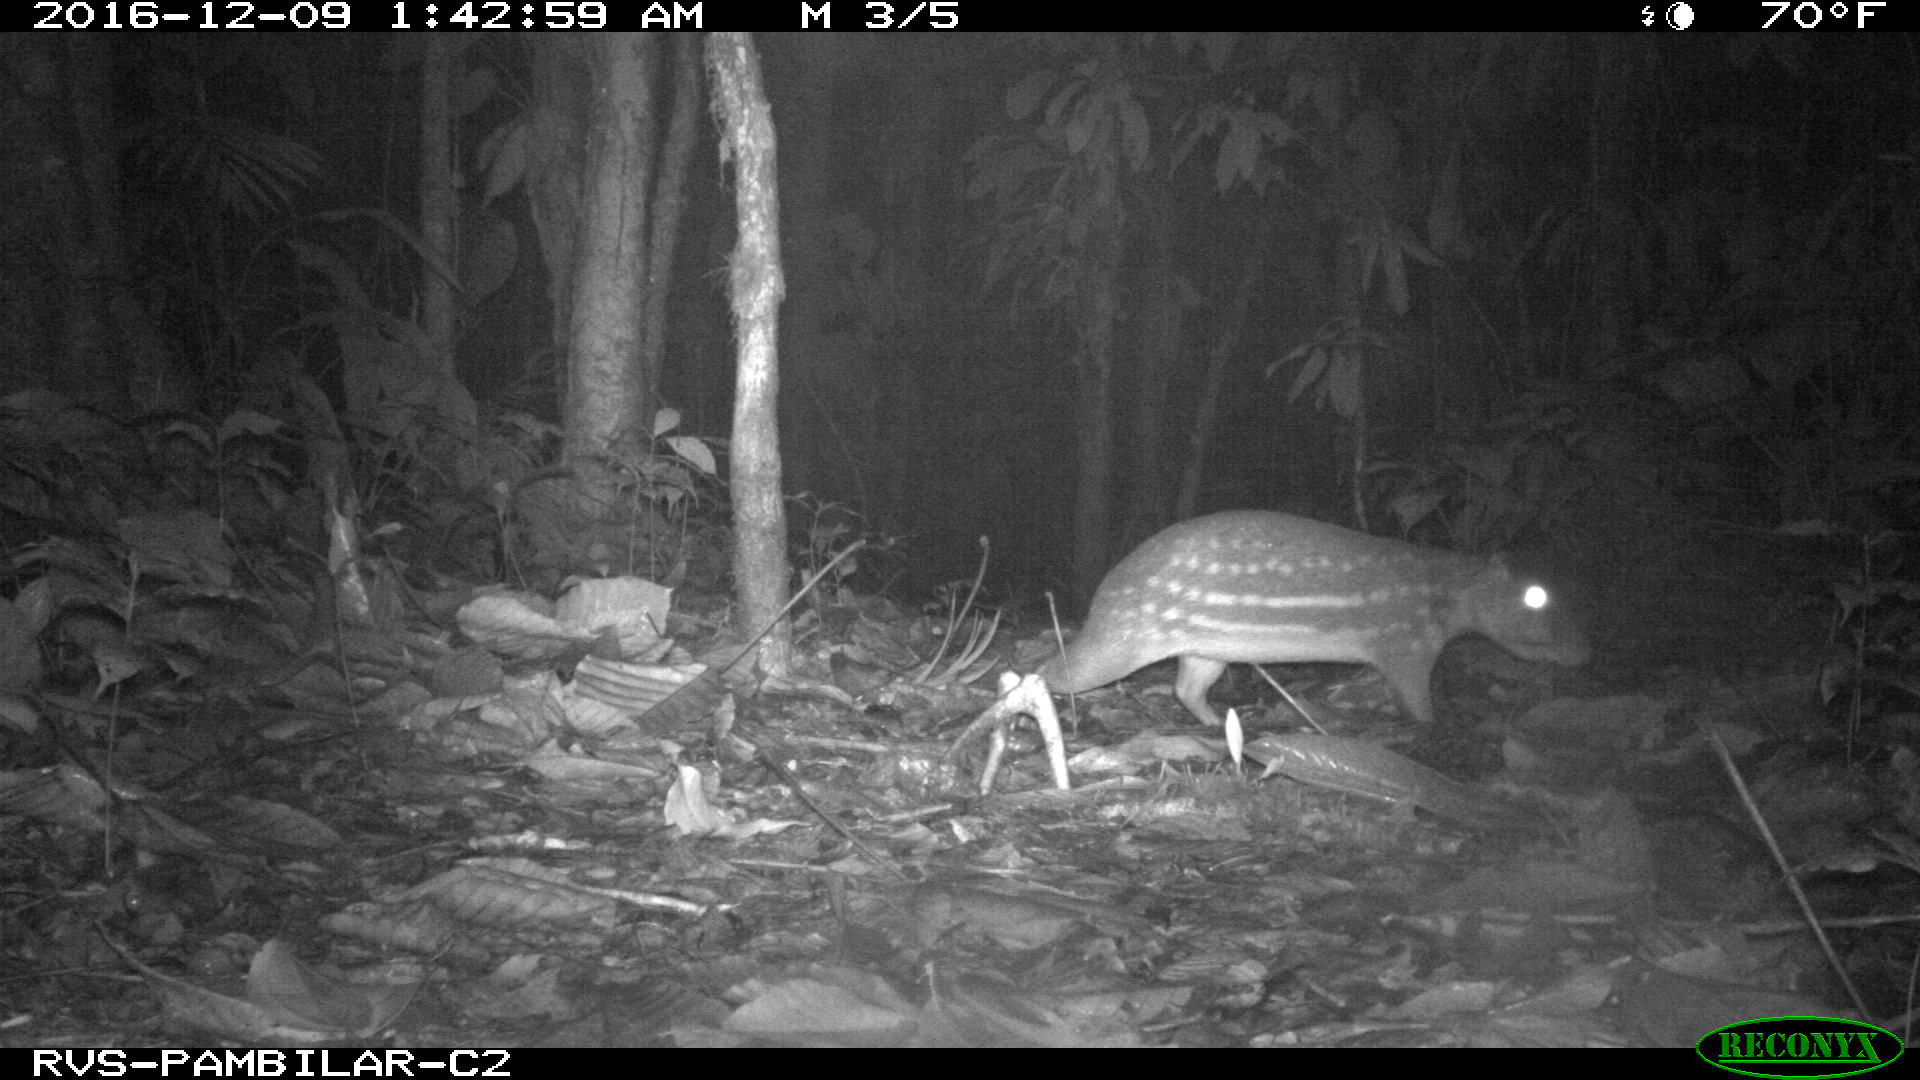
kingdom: Animalia
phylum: Chordata
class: Mammalia
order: Rodentia
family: Cuniculidae
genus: Cuniculus
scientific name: Cuniculus paca
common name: Lowland paca
